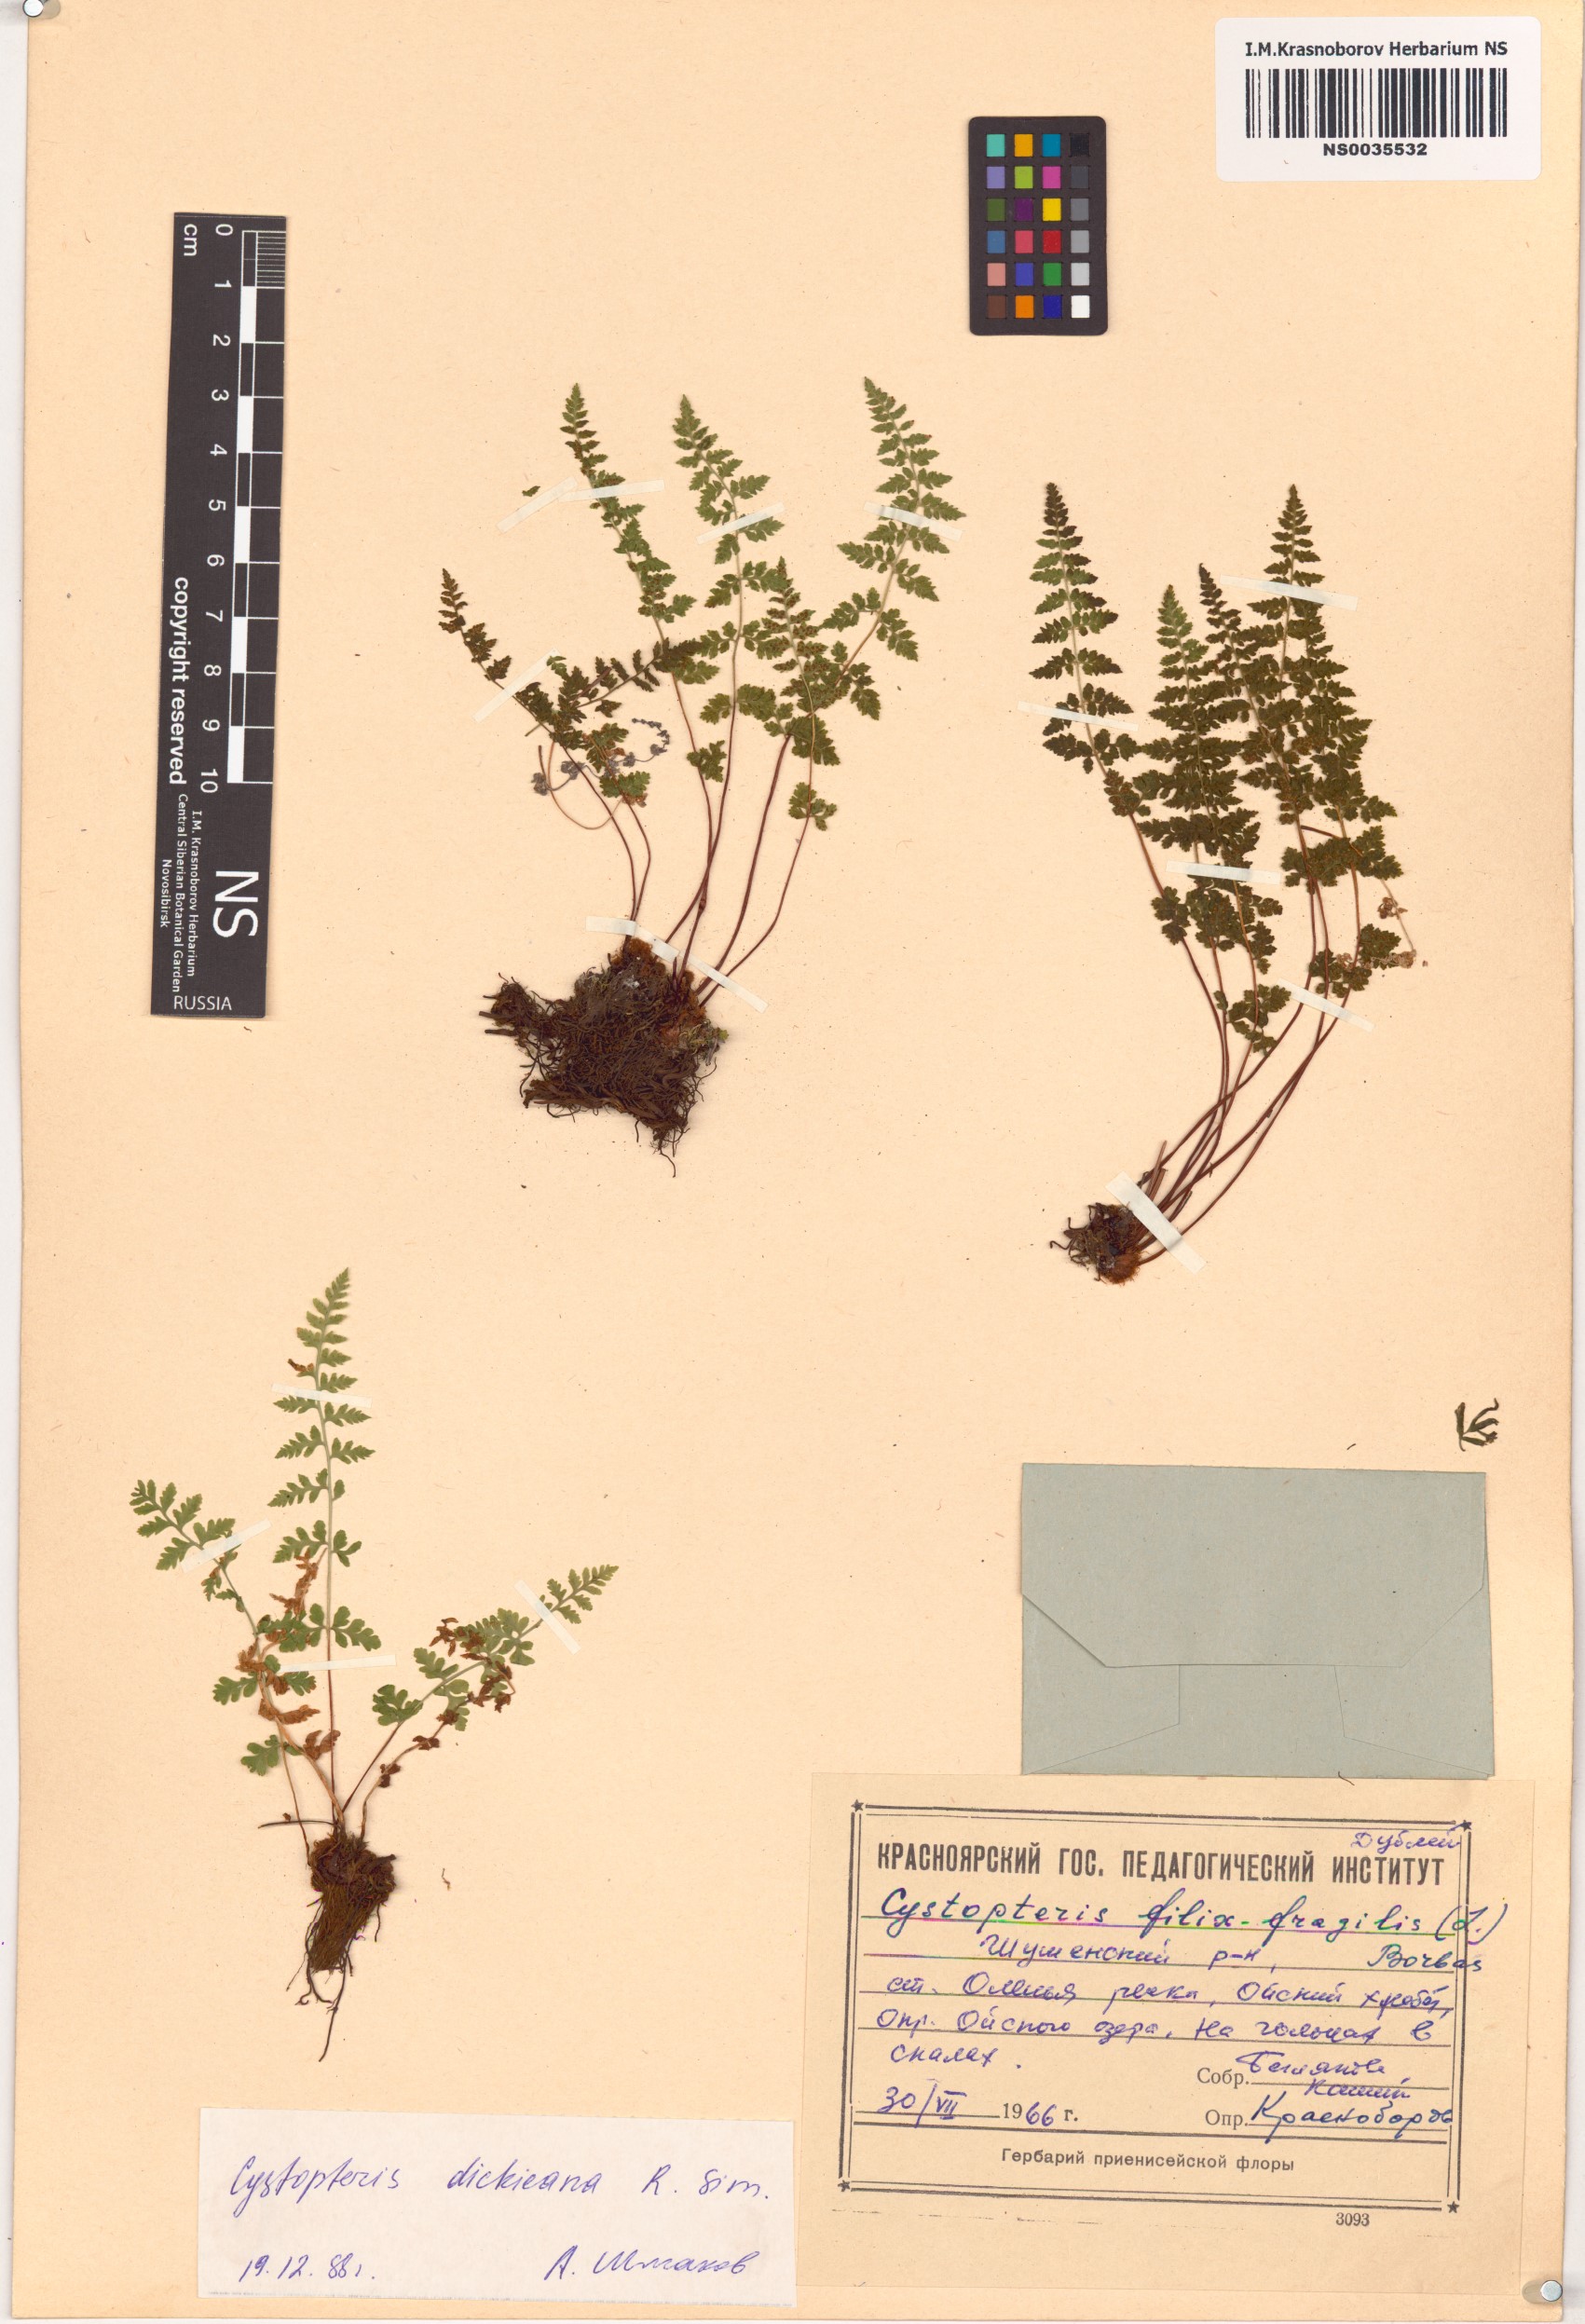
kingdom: Plantae
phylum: Tracheophyta
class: Polypodiopsida
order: Polypodiales
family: Cystopteridaceae
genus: Cystopteris
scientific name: Cystopteris dickieana
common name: Dickie's bladder-fern
